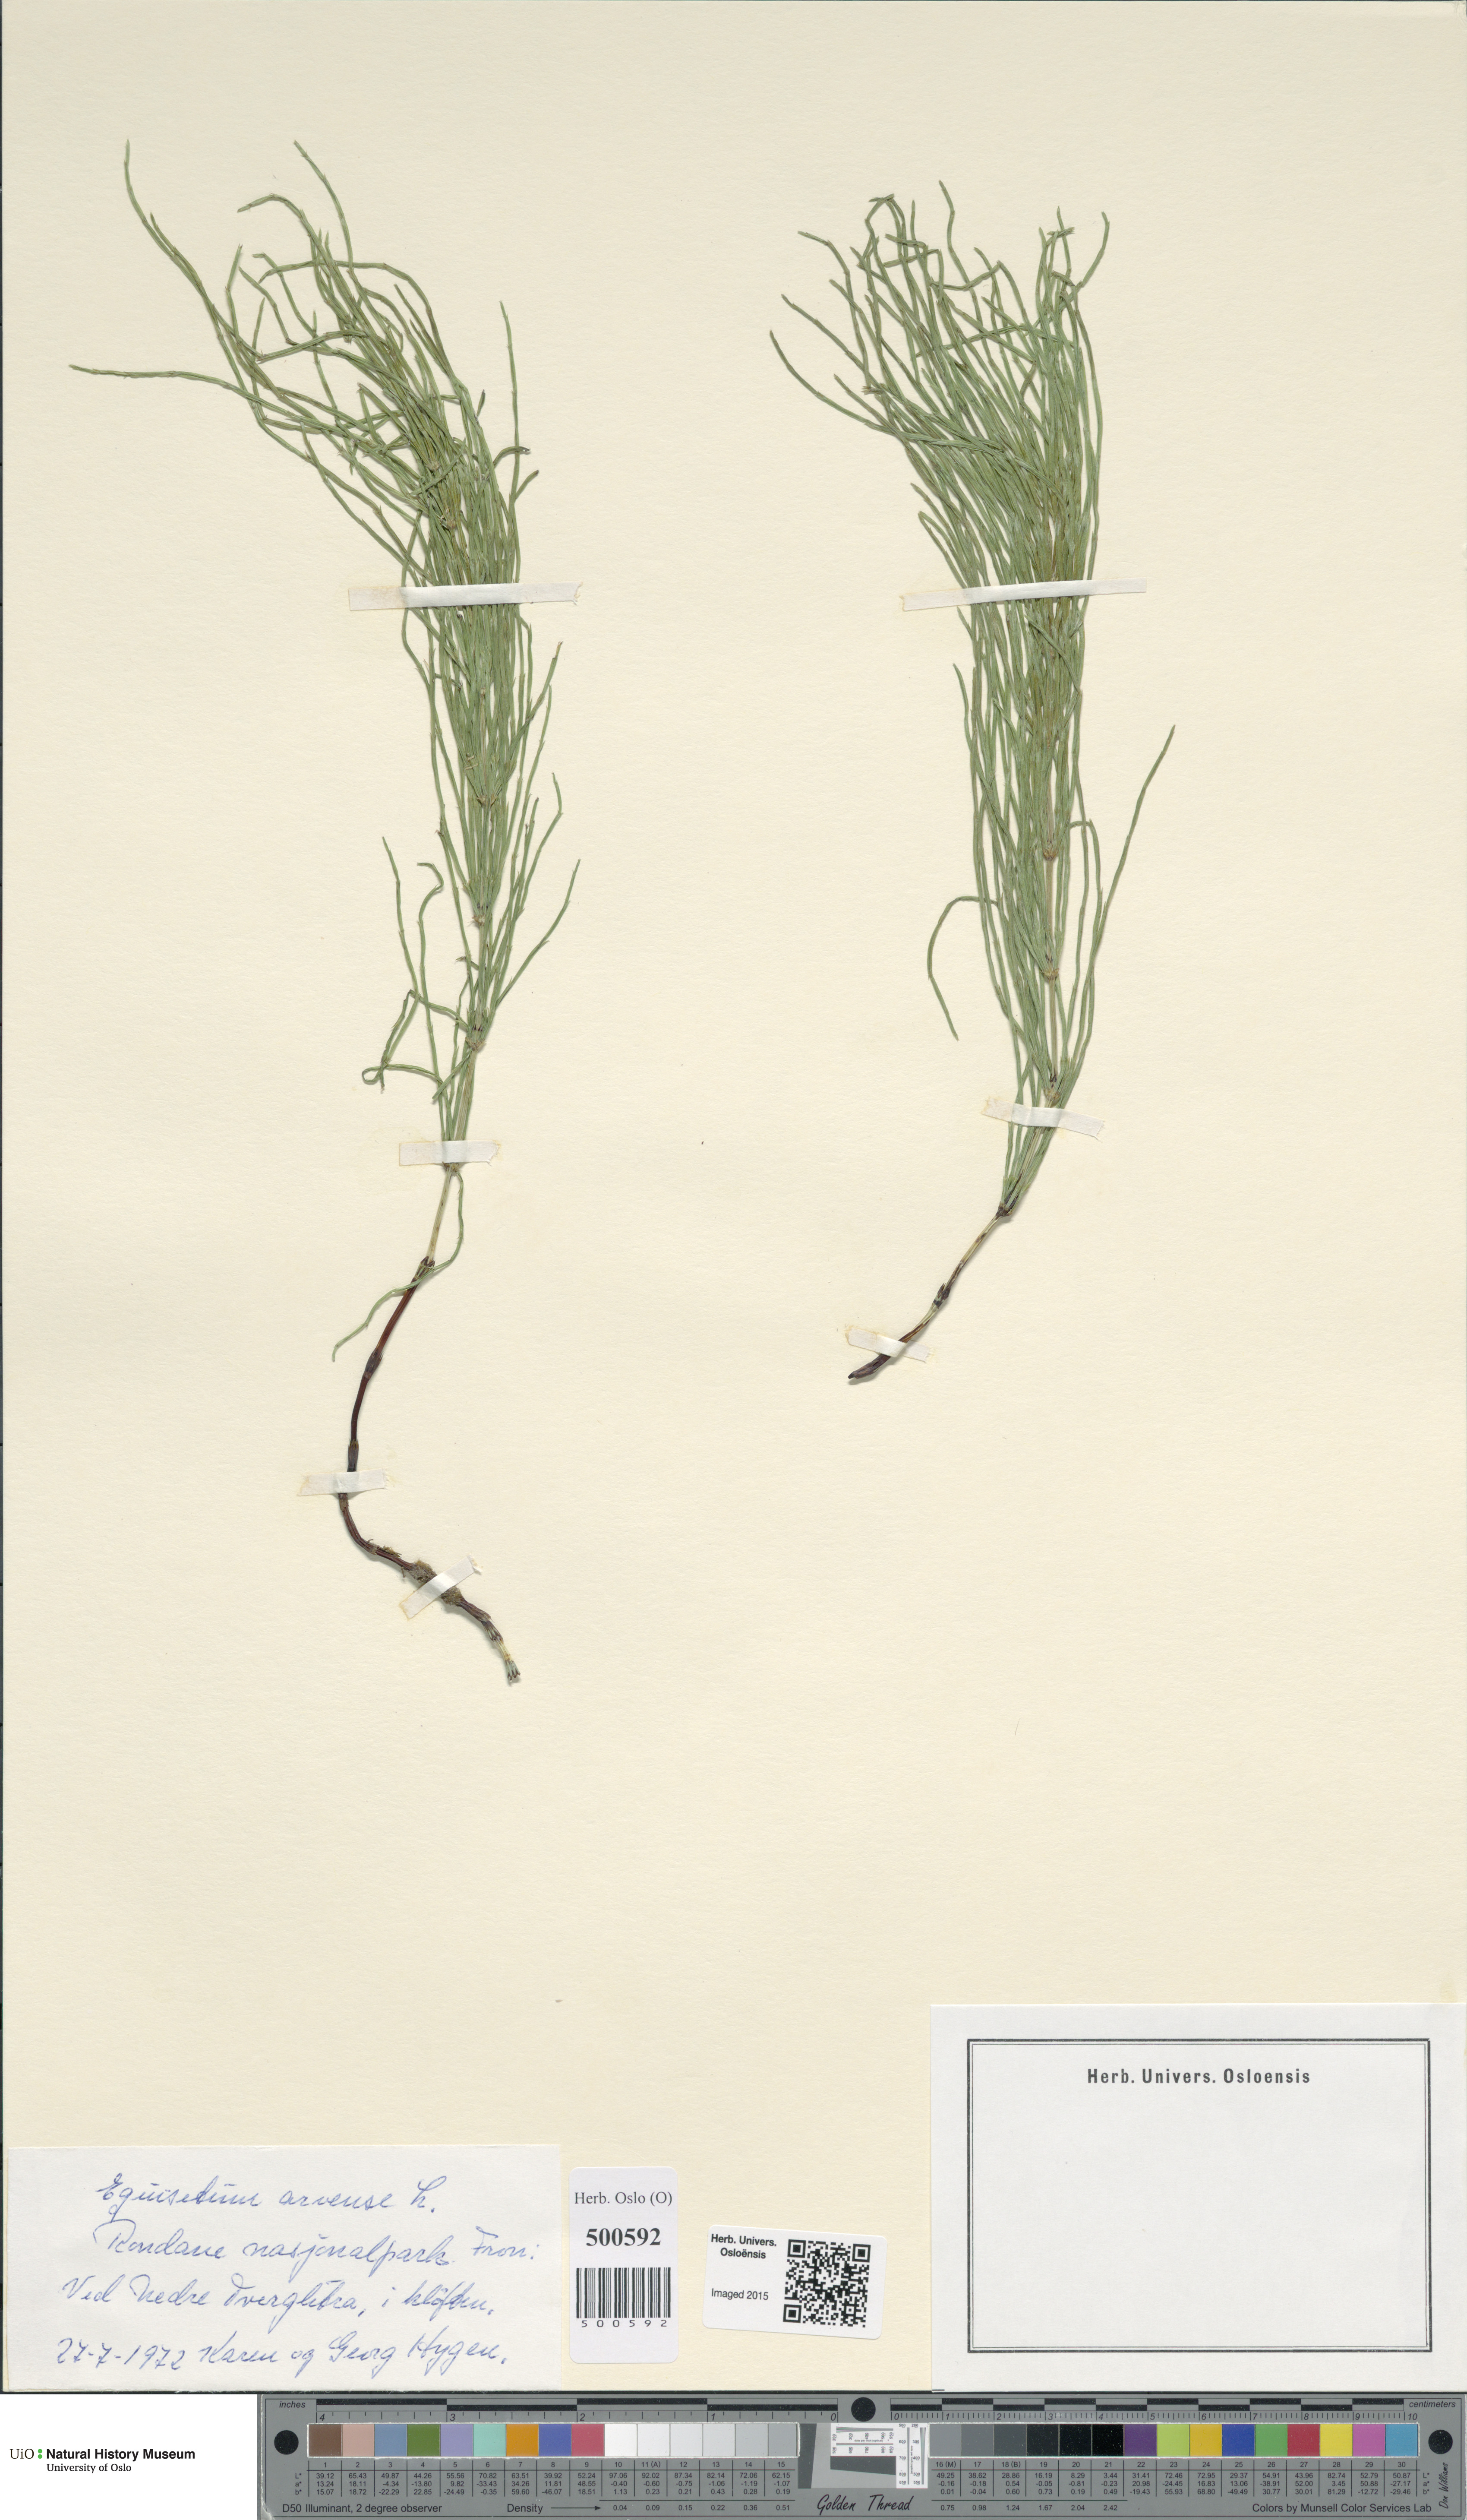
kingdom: Plantae
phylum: Tracheophyta
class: Polypodiopsida
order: Equisetales
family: Equisetaceae
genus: Equisetum
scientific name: Equisetum arvense
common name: Field horsetail
